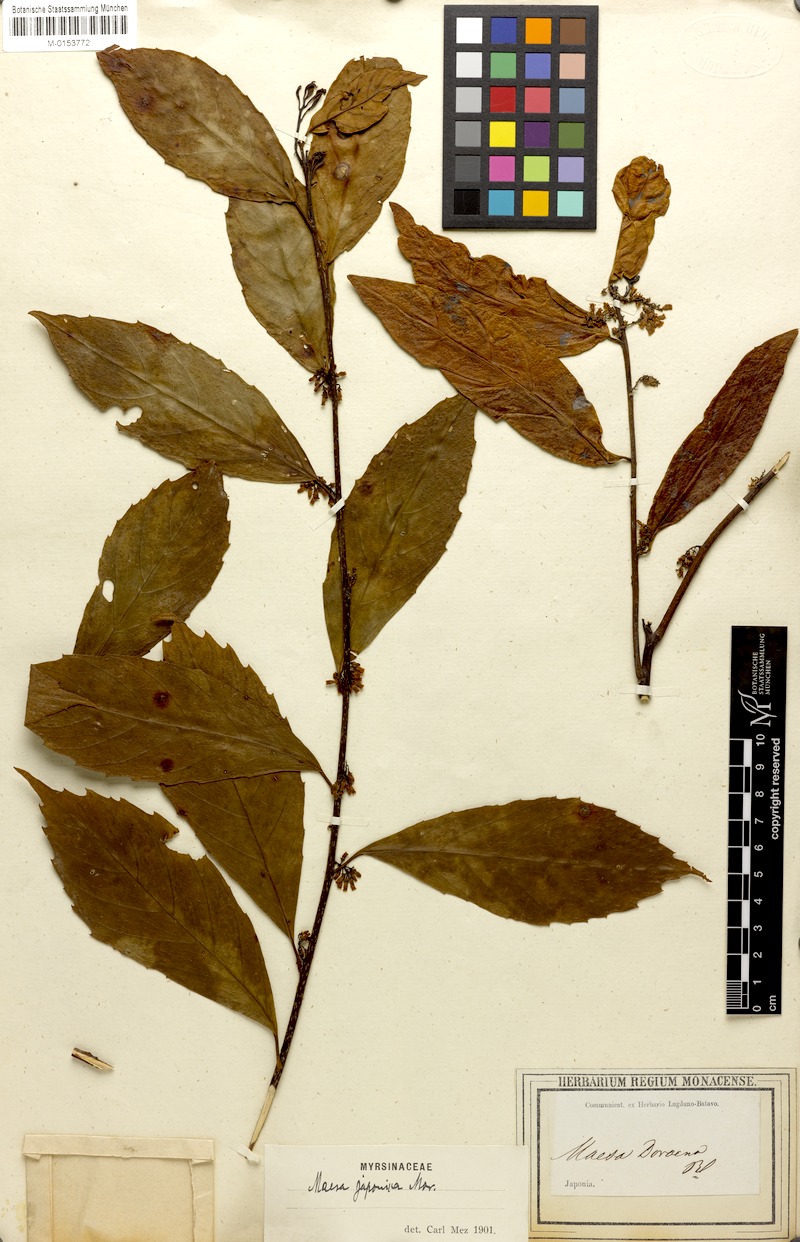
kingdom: Plantae
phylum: Tracheophyta
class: Magnoliopsida
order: Ericales
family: Primulaceae
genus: Maesa
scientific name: Maesa japonica
